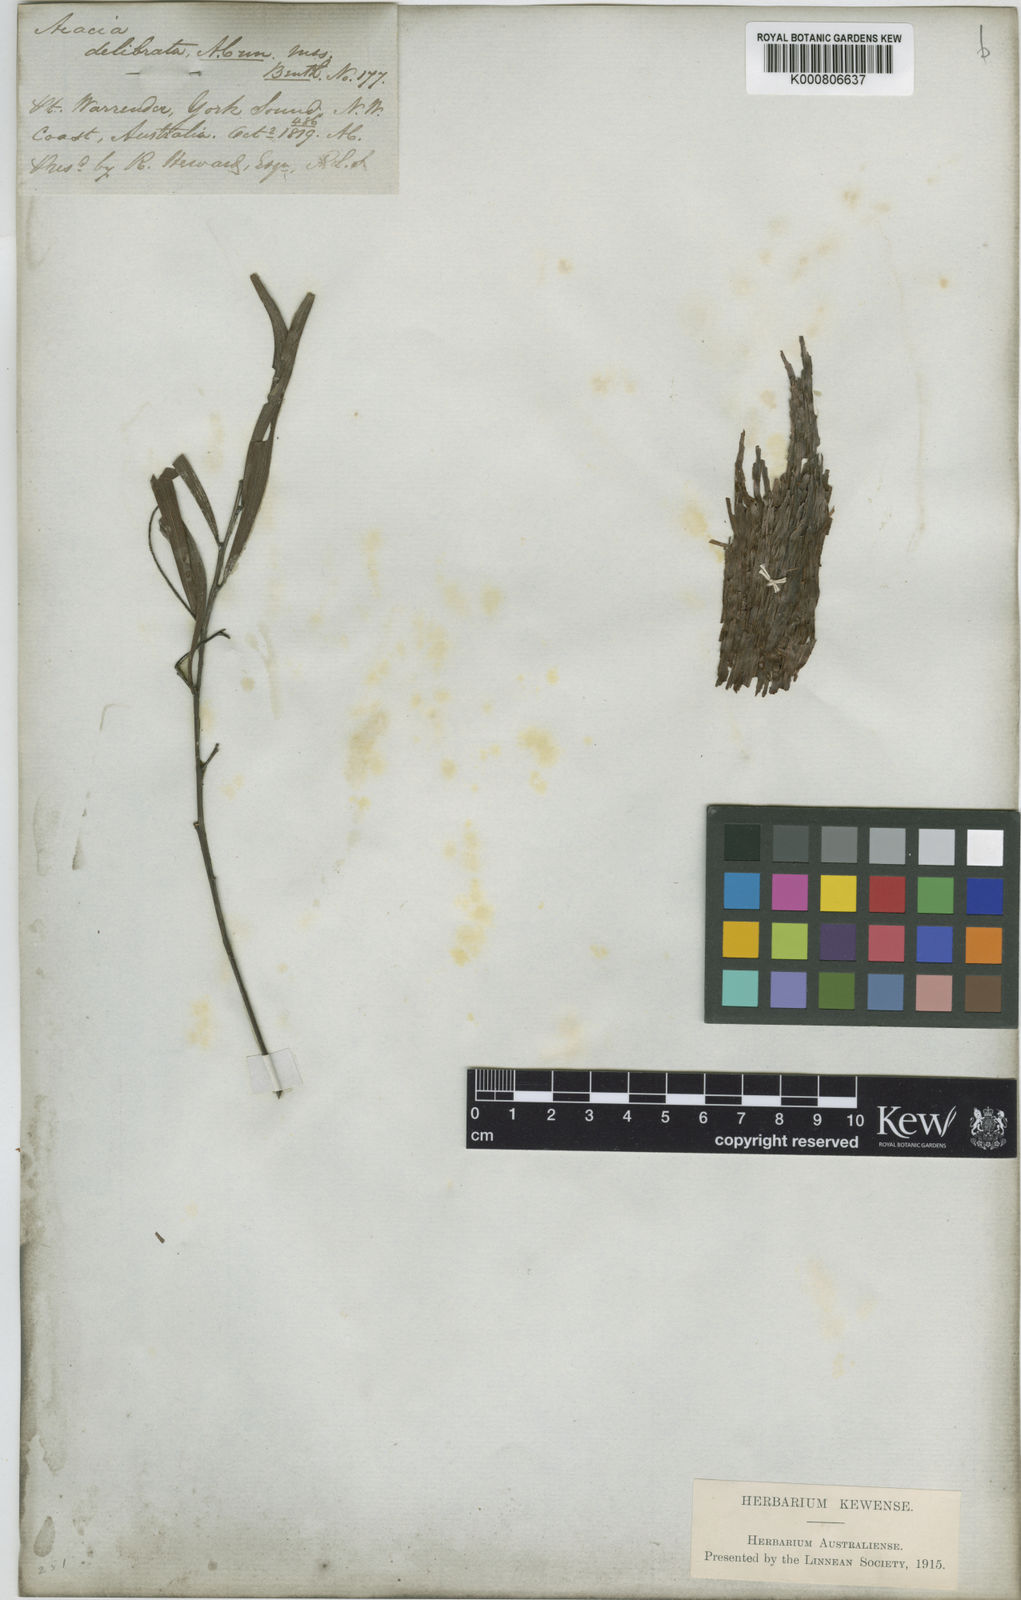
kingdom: Plantae
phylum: Tracheophyta
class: Magnoliopsida
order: Fabales
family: Fabaceae
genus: Acacia
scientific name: Acacia
